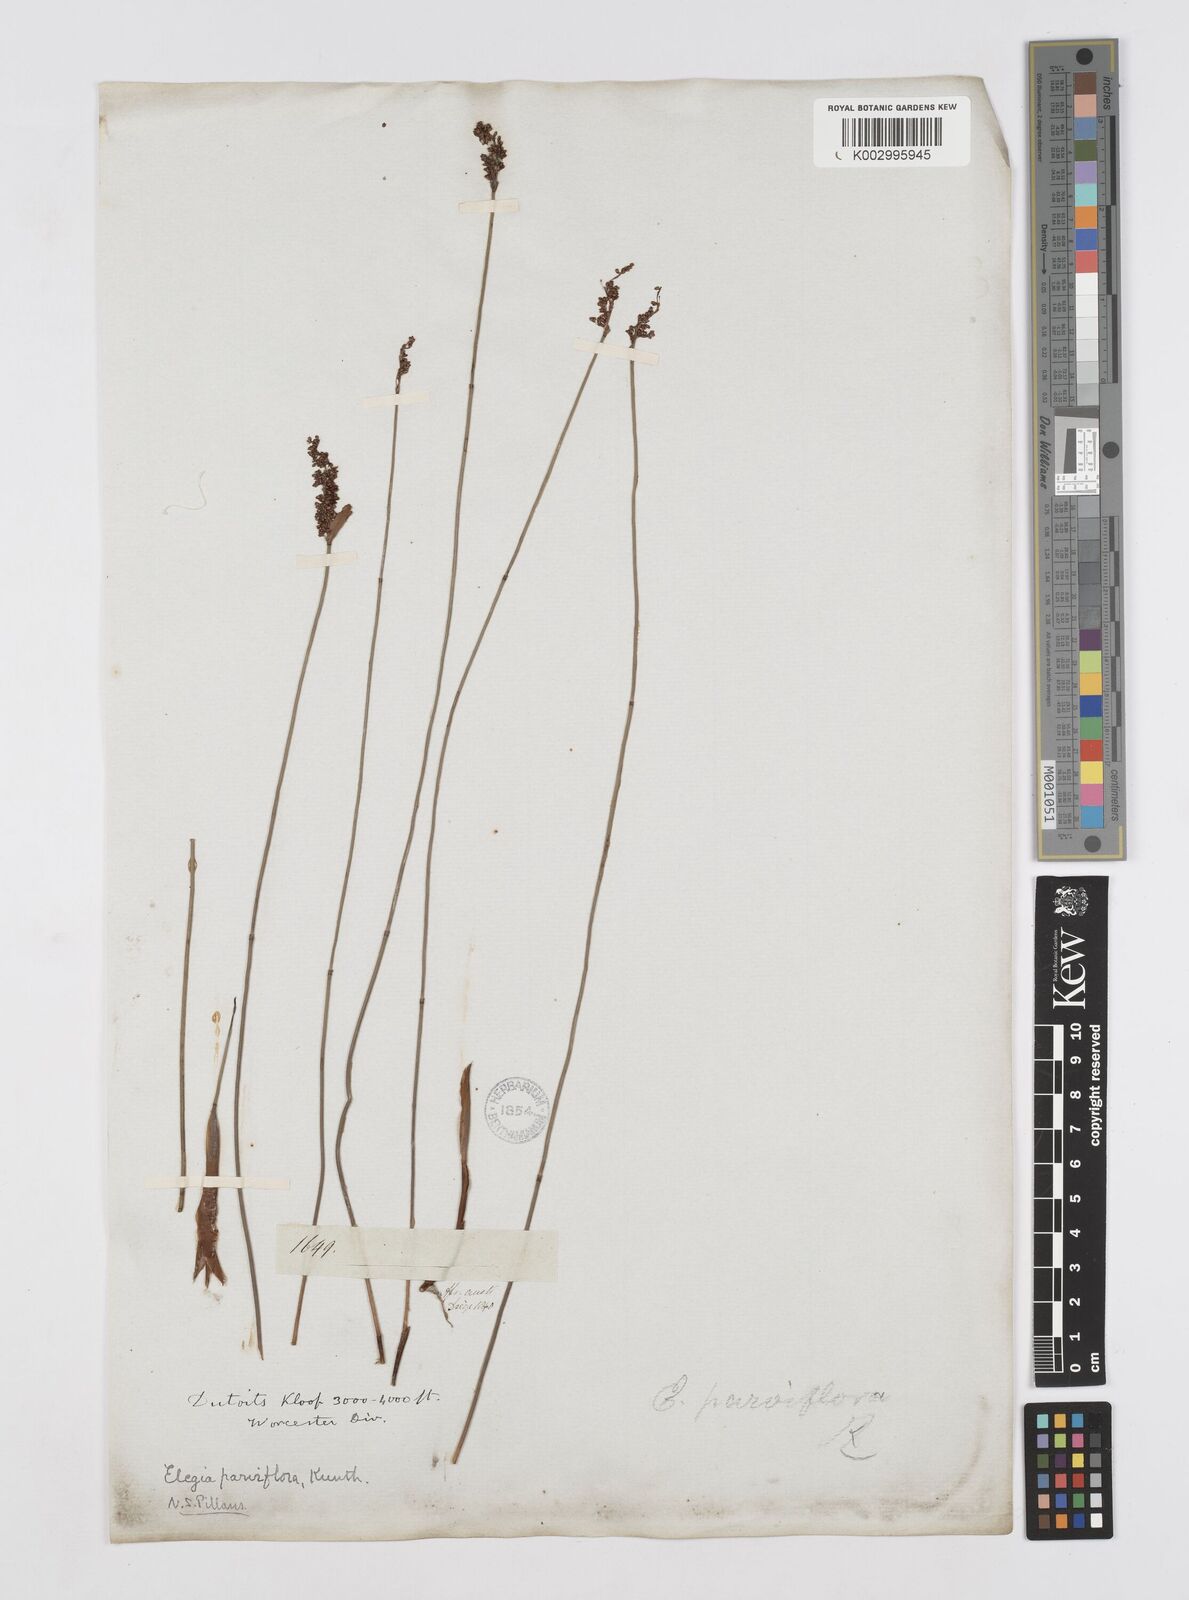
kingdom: Plantae
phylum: Tracheophyta
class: Liliopsida
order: Poales
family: Restionaceae
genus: Cannomois
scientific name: Cannomois parviflora
